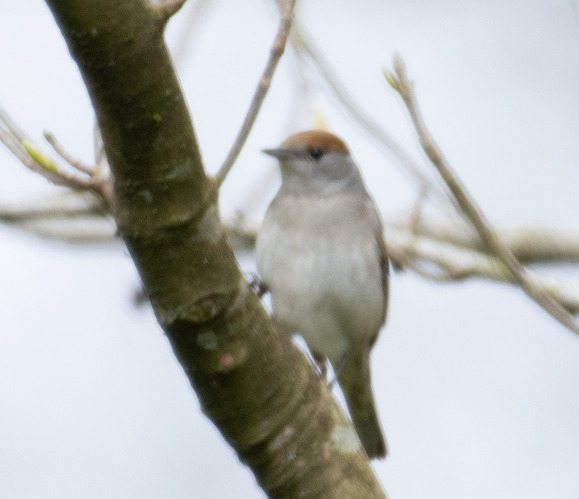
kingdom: Animalia
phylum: Chordata
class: Aves
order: Passeriformes
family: Sylviidae
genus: Sylvia
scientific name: Sylvia atricapilla
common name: Munk
